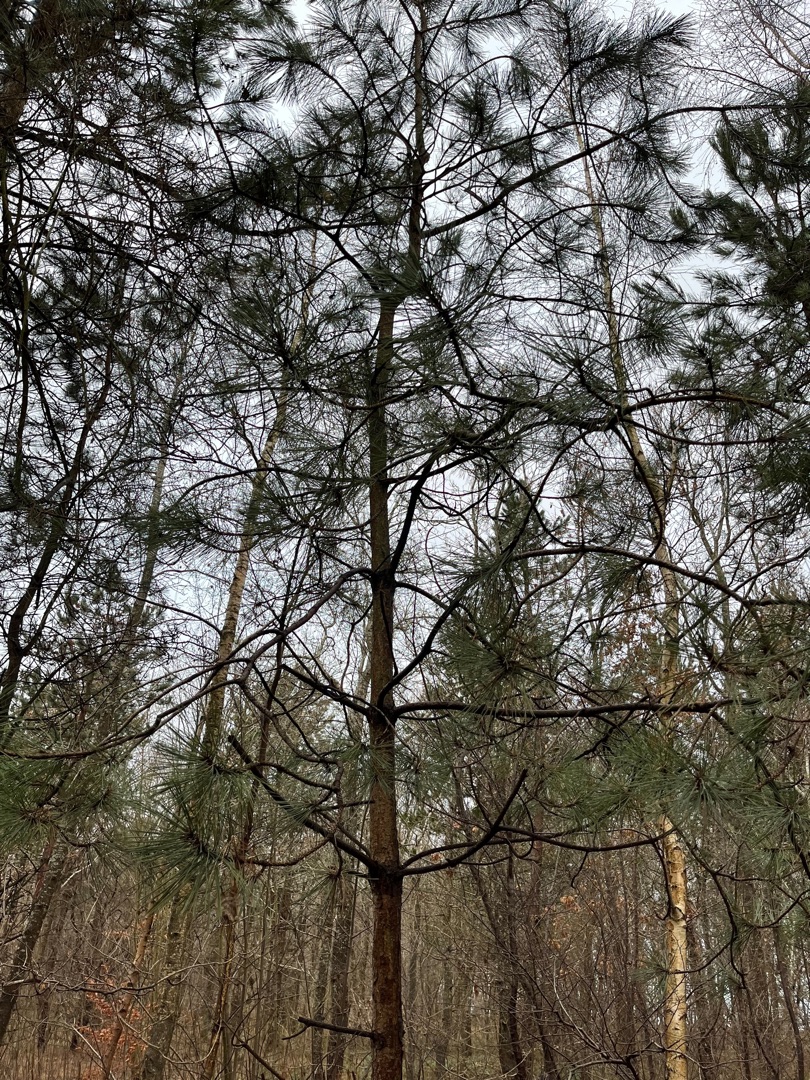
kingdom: Plantae
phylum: Tracheophyta
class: Pinopsida
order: Pinales
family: Pinaceae
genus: Pinus
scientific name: Pinus nigra
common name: Østrigsk fyr
